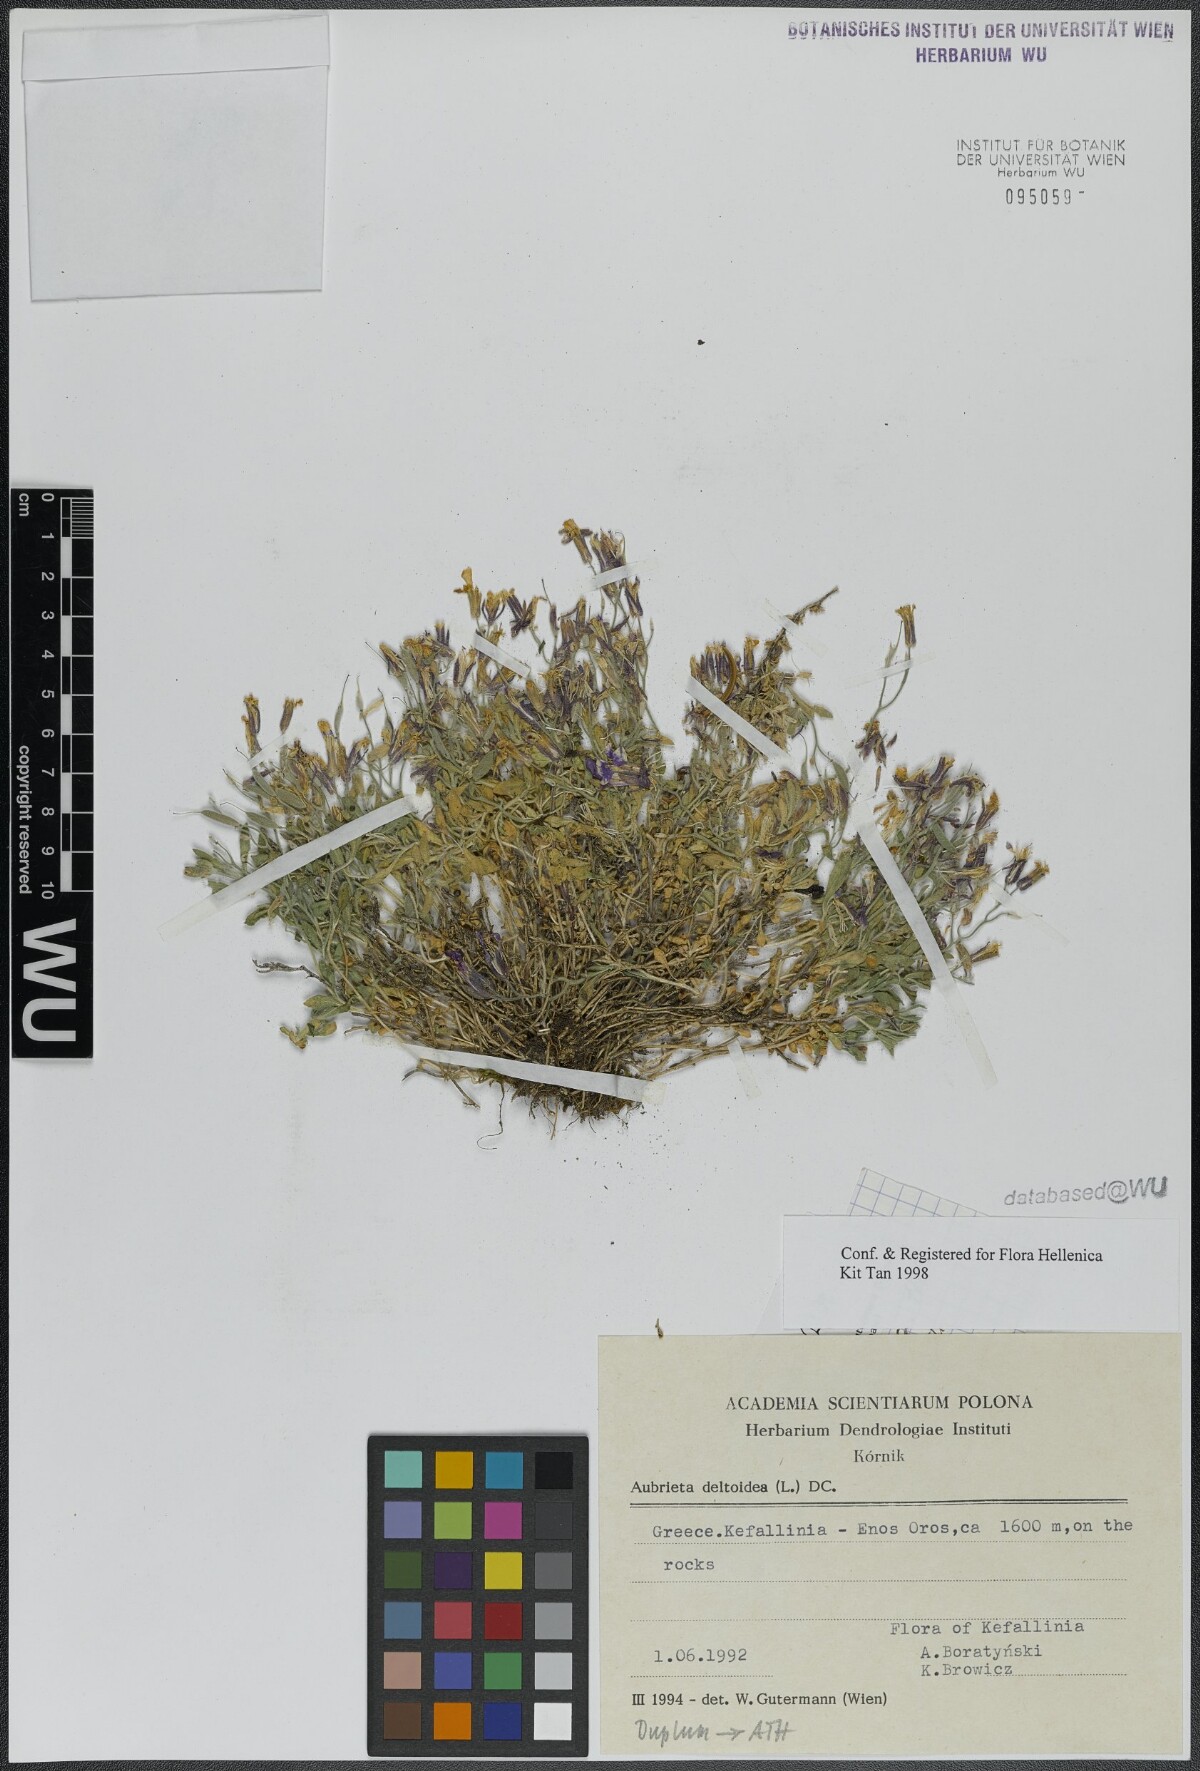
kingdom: Plantae
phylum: Tracheophyta
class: Magnoliopsida
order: Brassicales
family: Brassicaceae
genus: Aubrieta
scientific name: Aubrieta deltoidea
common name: Aubretia
